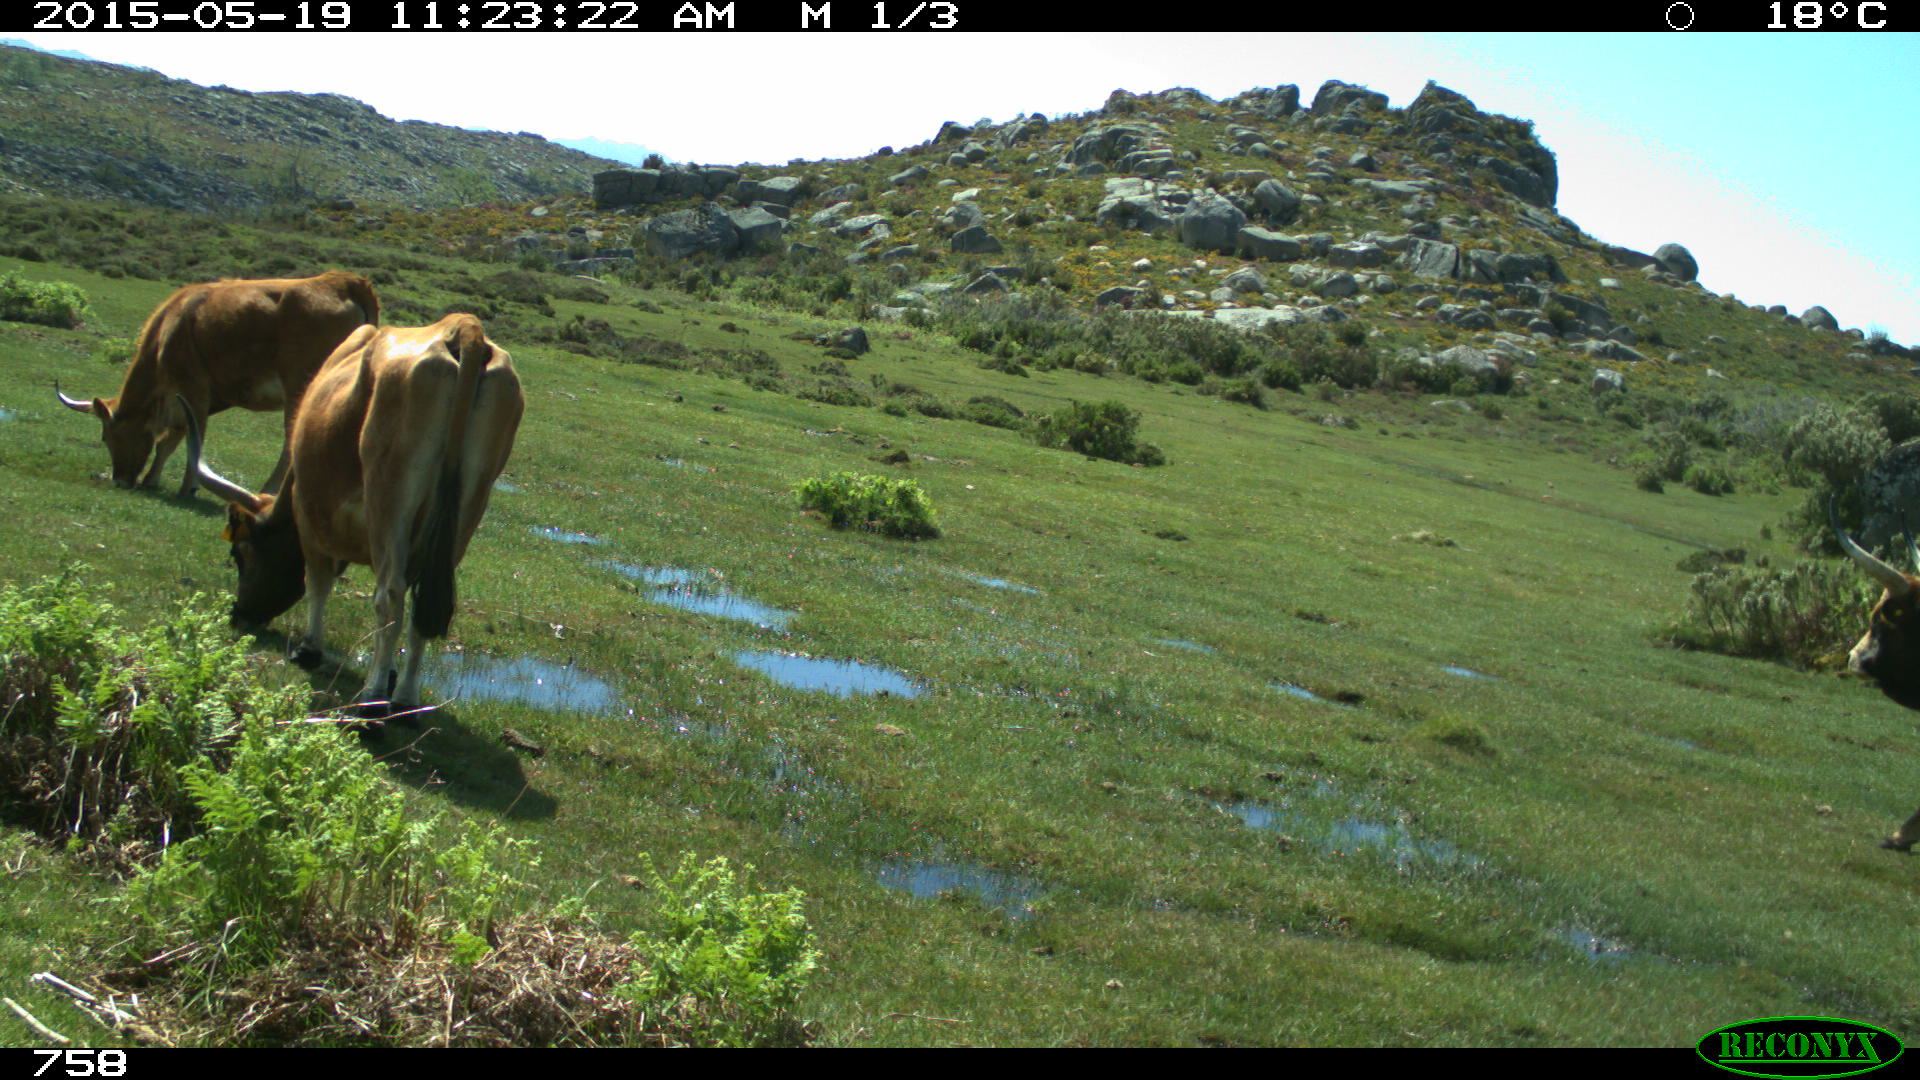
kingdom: Animalia
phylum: Chordata
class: Mammalia
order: Artiodactyla
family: Bovidae
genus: Bos
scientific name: Bos taurus
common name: Domesticated cattle
